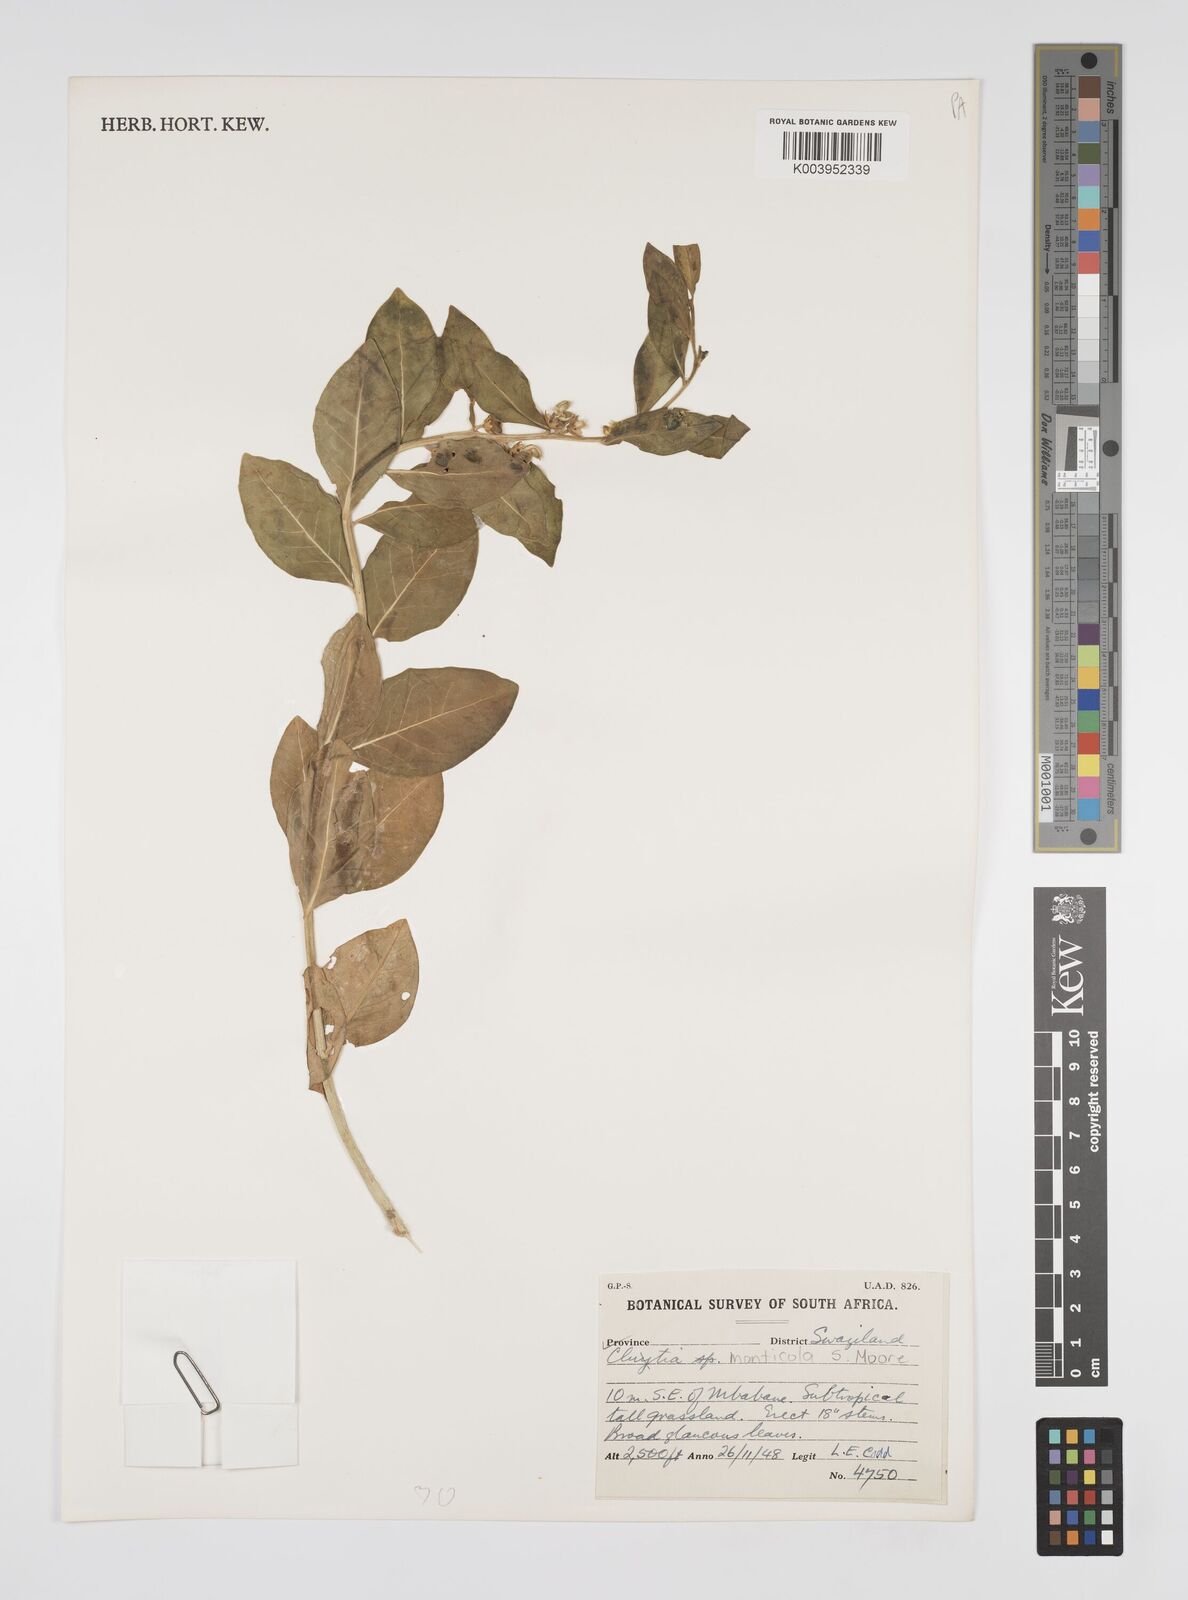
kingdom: Plantae
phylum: Tracheophyta
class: Magnoliopsida
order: Malpighiales
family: Peraceae
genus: Clutia
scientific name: Clutia monticola
